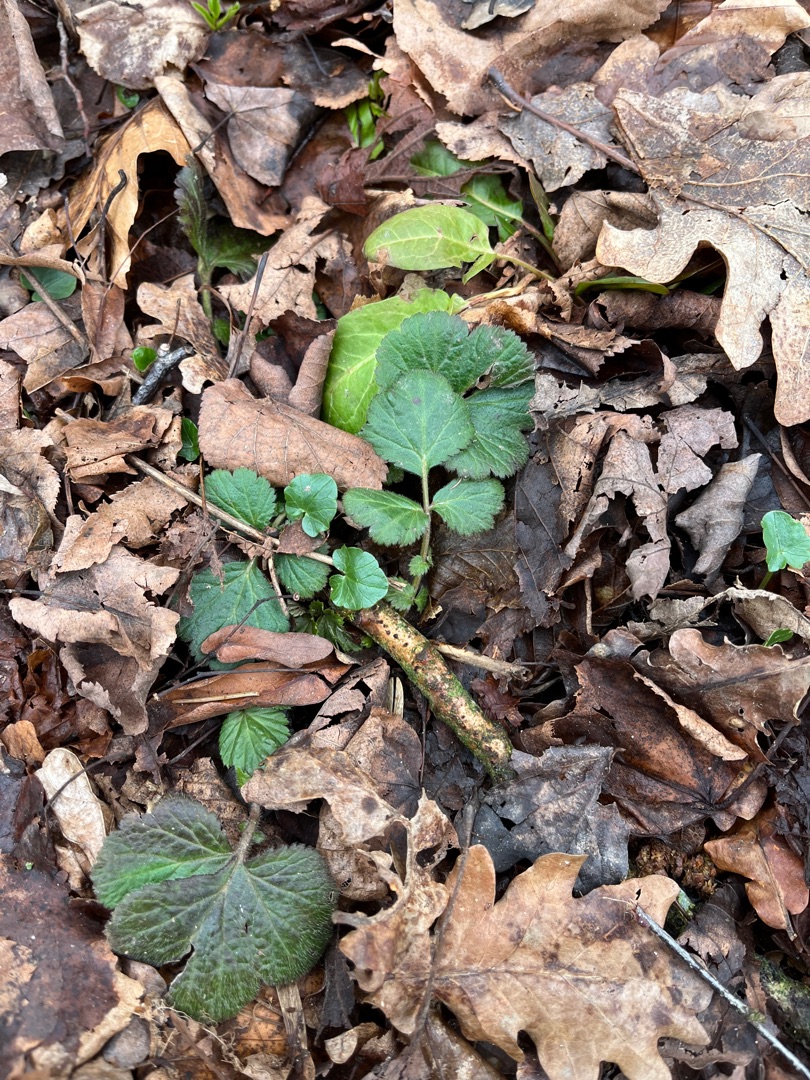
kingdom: Plantae
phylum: Tracheophyta
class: Magnoliopsida
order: Rosales
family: Rosaceae
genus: Geum
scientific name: Geum urbanum
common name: Feber-nellikerod
